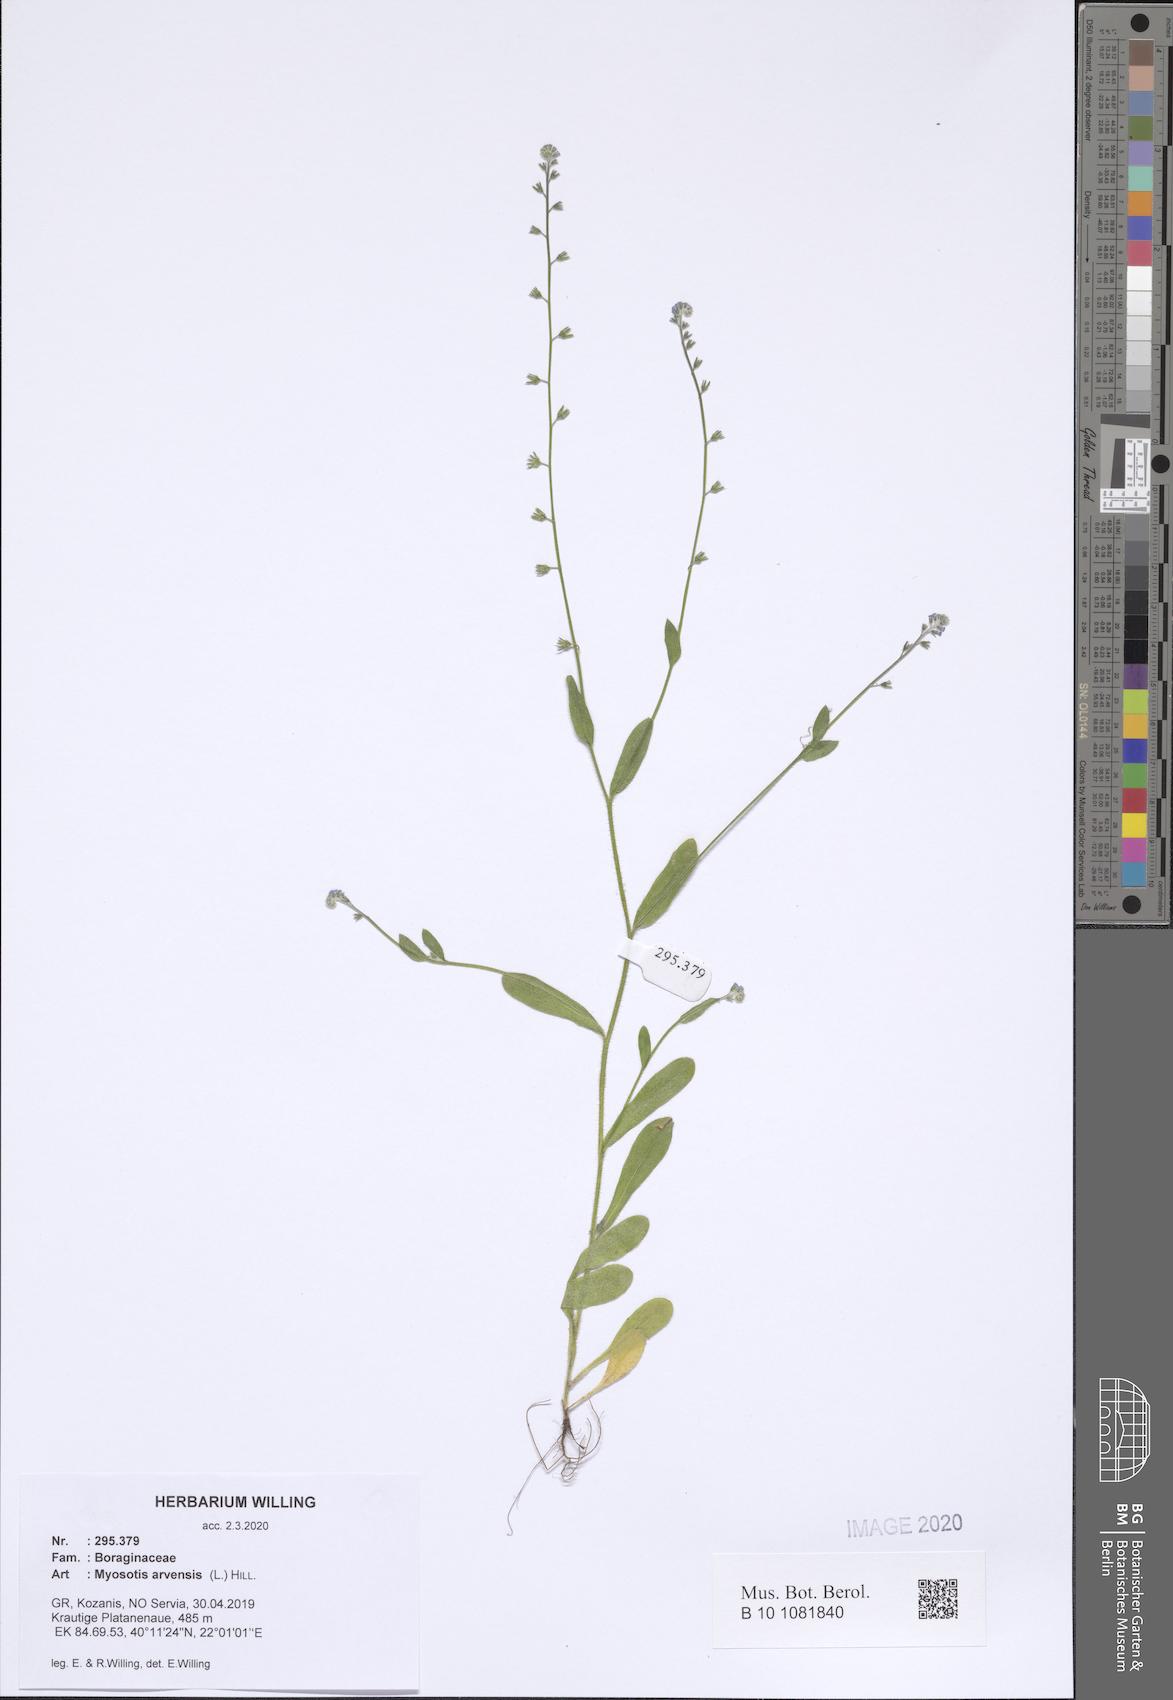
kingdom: Plantae
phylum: Tracheophyta
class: Magnoliopsida
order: Boraginales
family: Boraginaceae
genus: Myosotis
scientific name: Myosotis arvensis
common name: Field forget-me-not
